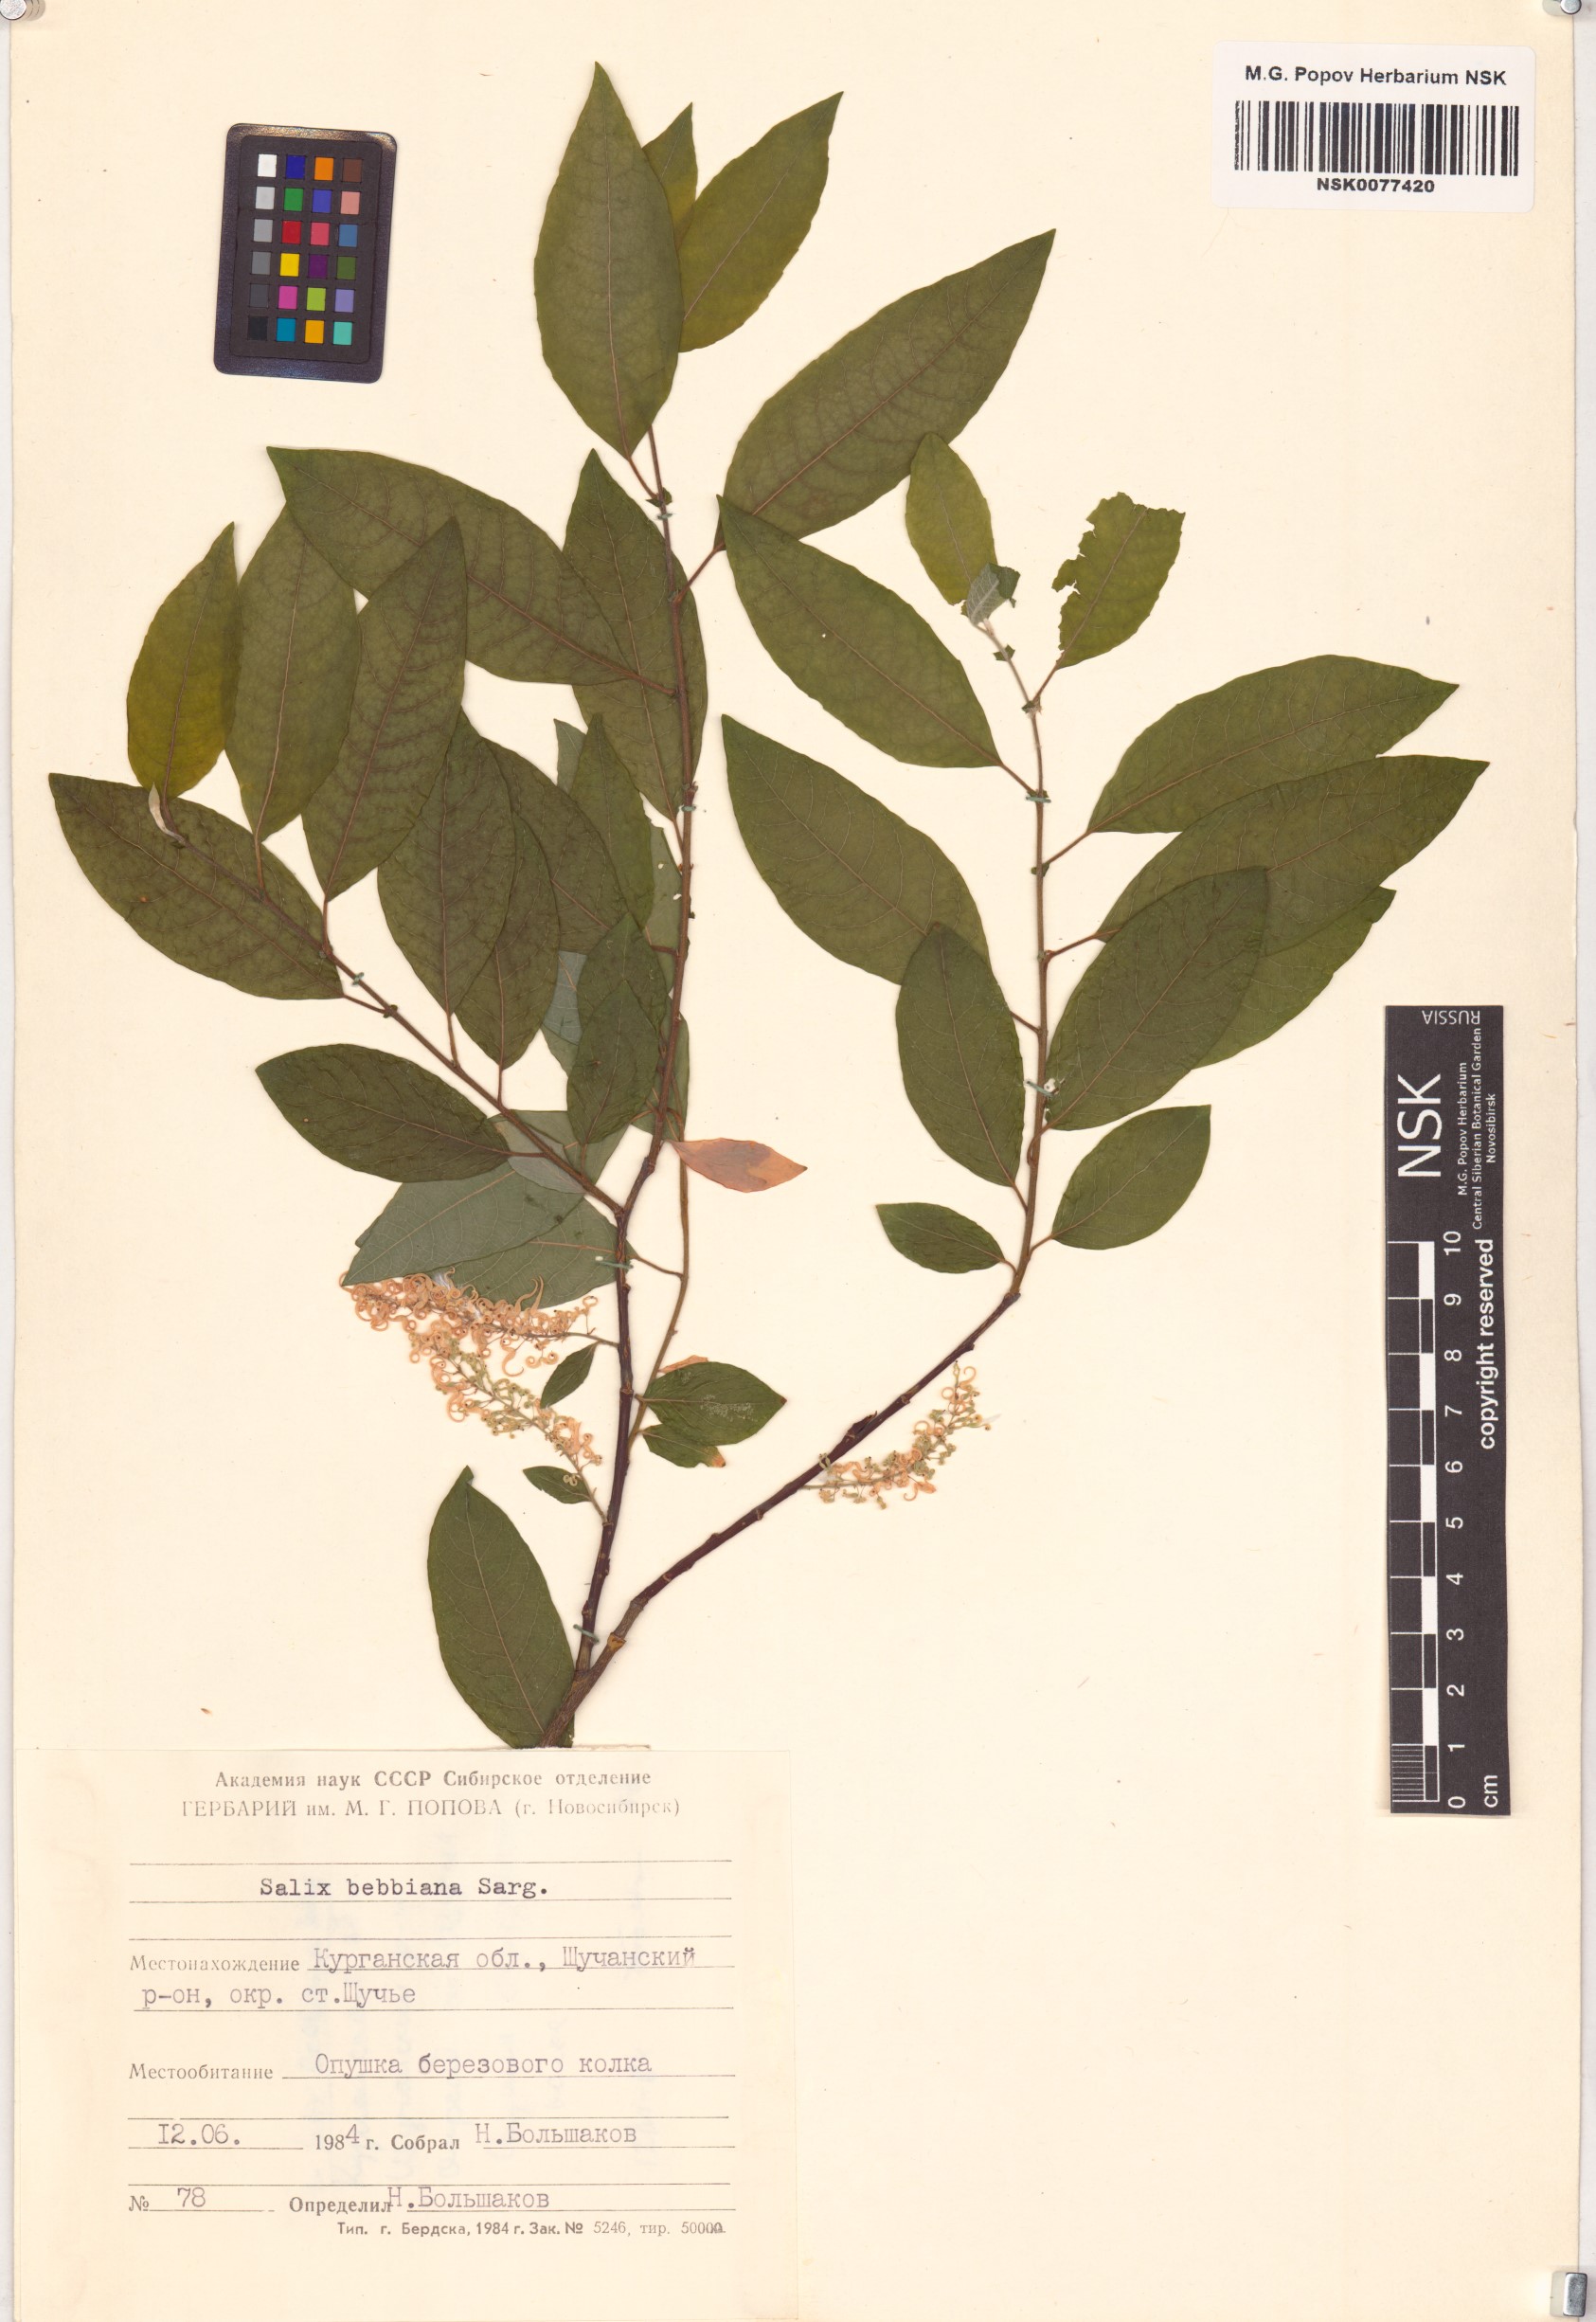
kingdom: Plantae
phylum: Tracheophyta
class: Magnoliopsida
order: Malpighiales
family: Salicaceae
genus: Salix
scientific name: Salix bebbiana
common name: Bebb's willow
